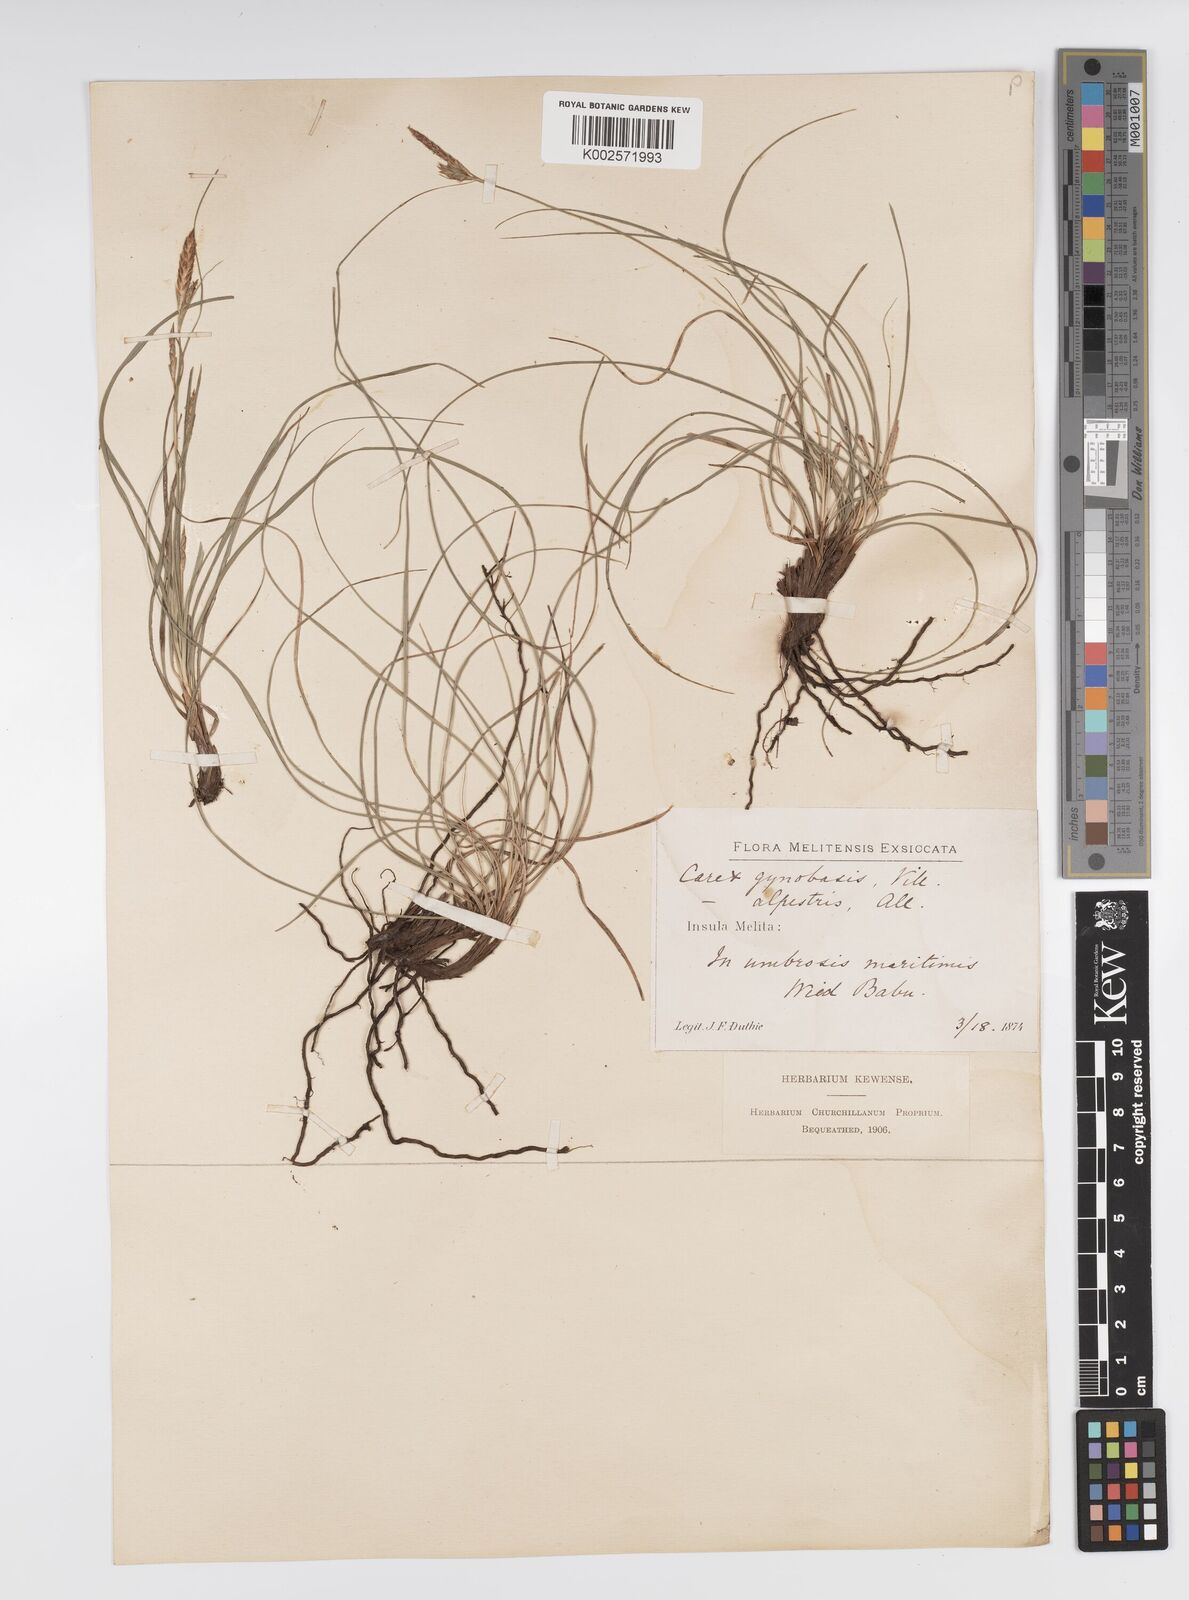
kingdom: Plantae
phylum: Tracheophyta
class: Liliopsida
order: Poales
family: Cyperaceae
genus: Carex
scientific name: Carex halleriana
